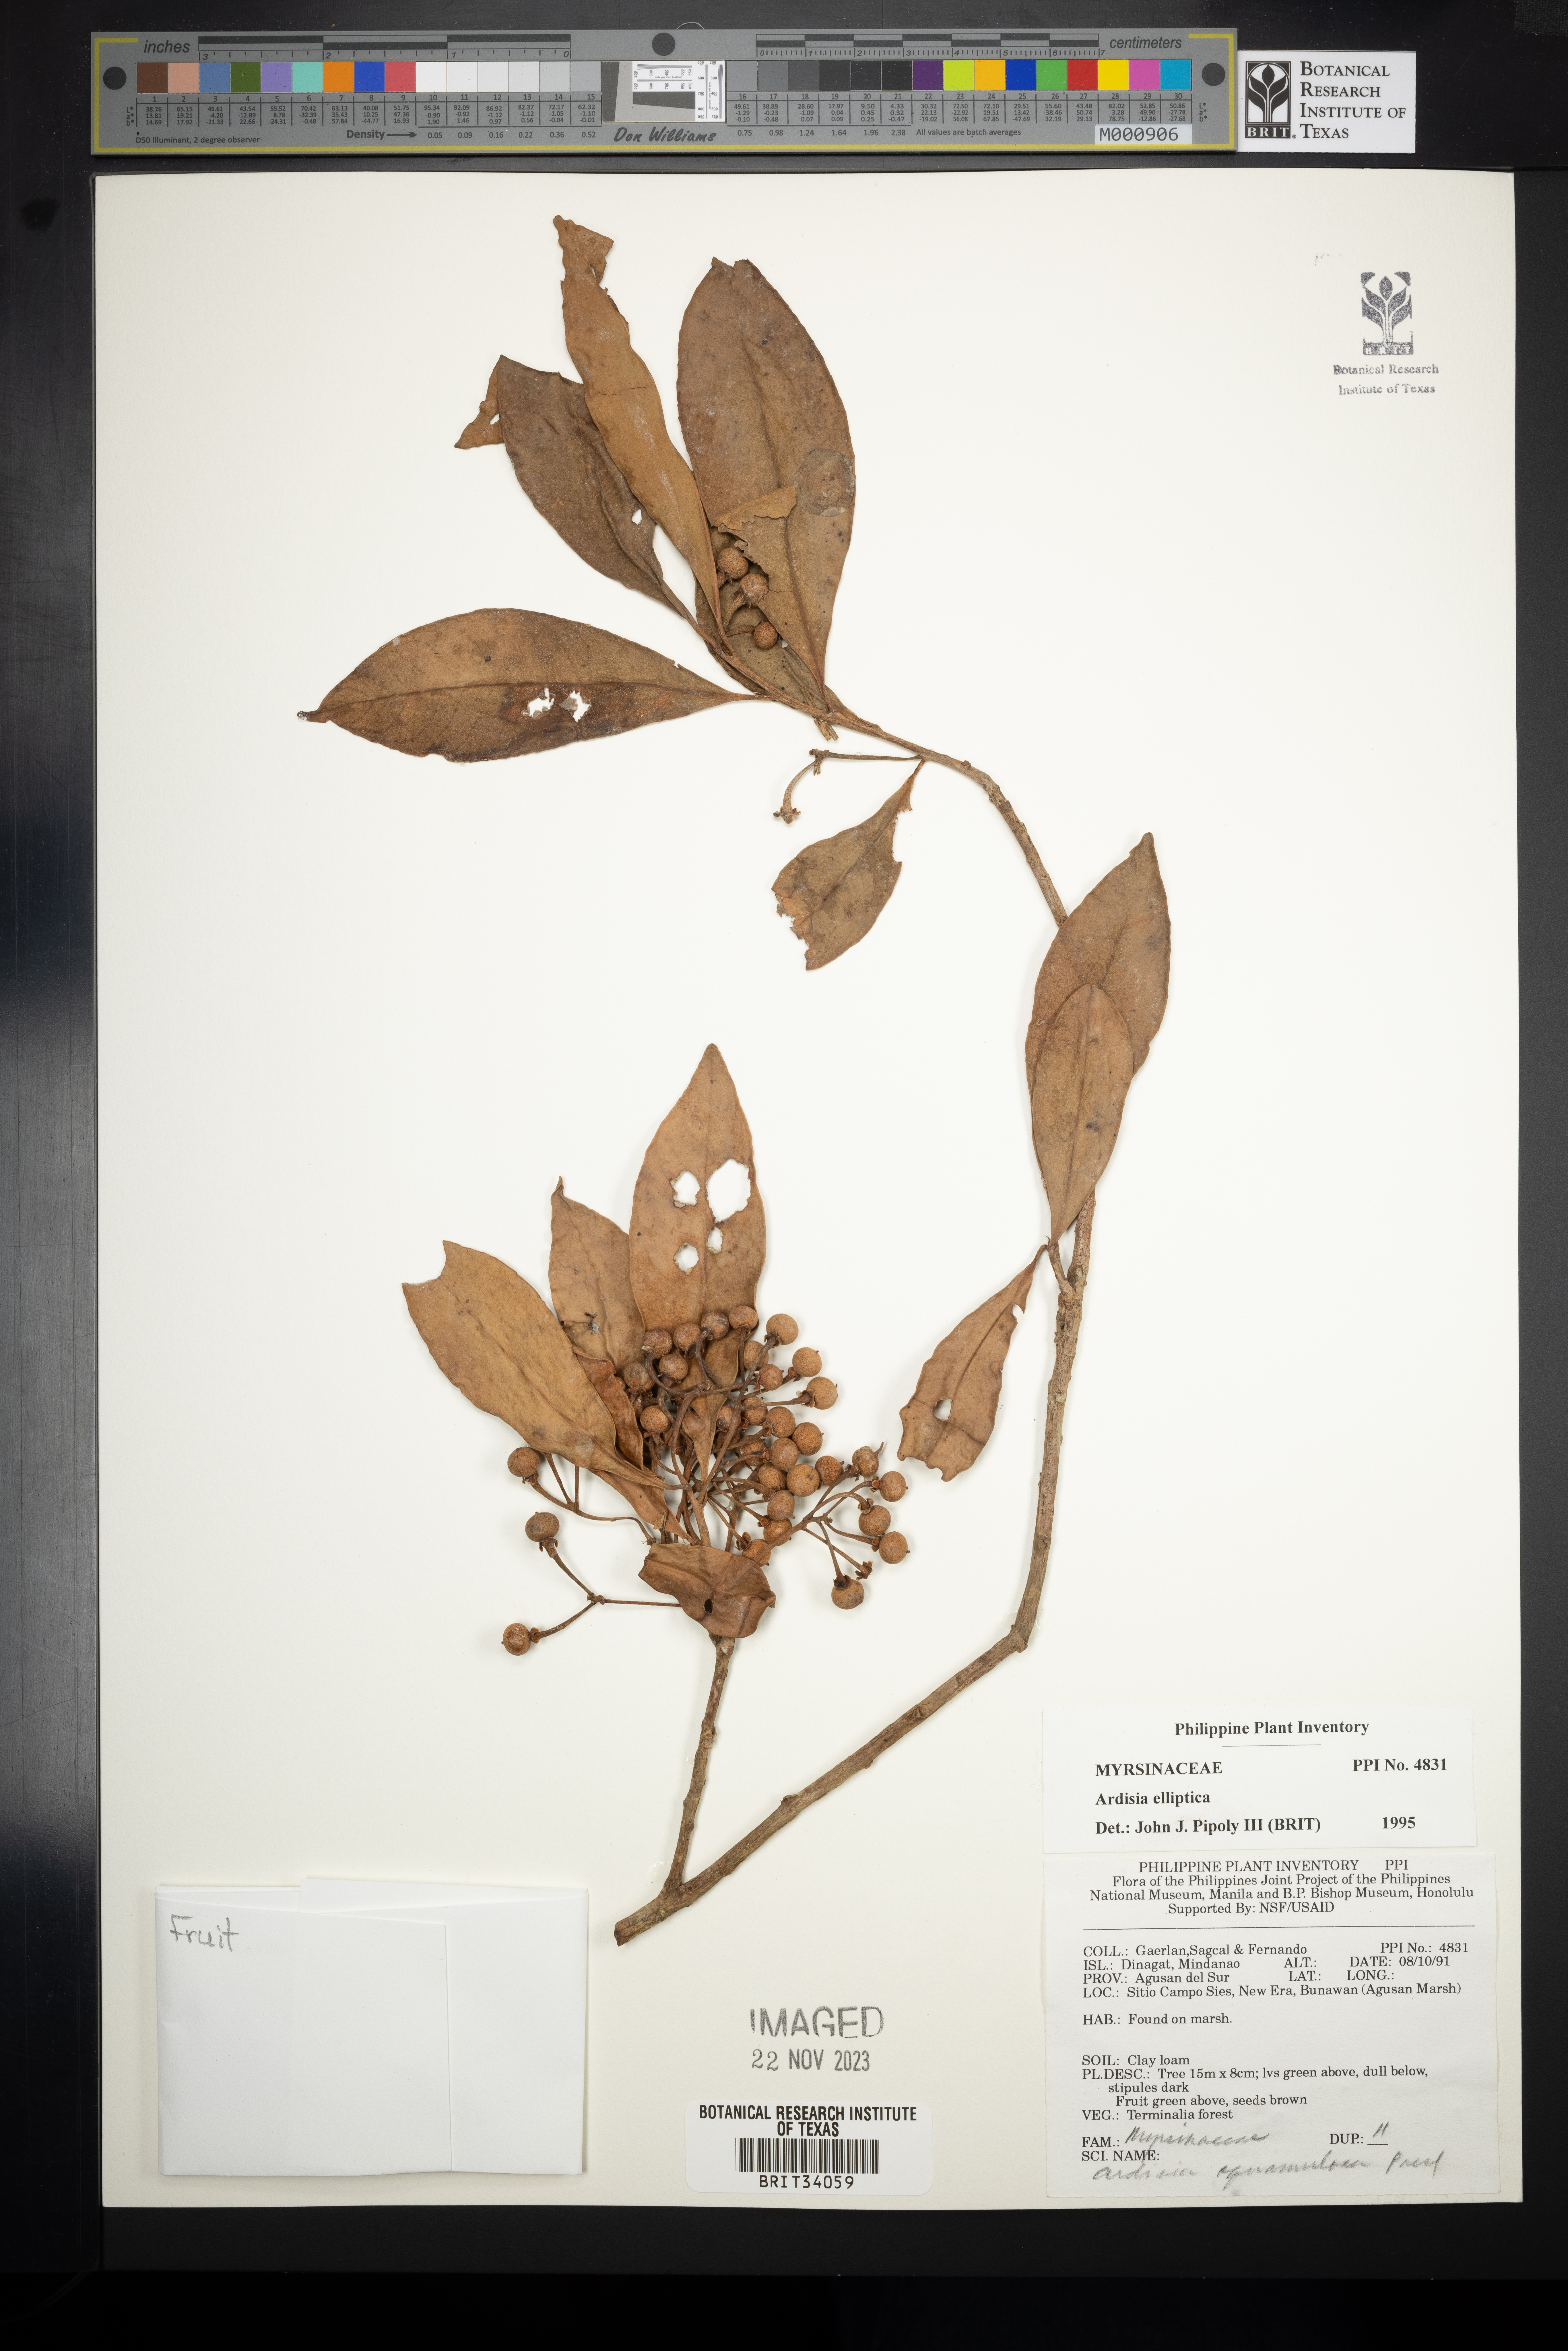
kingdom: Plantae
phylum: Tracheophyta
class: Magnoliopsida
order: Ericales
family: Primulaceae
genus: Ardisia
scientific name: Ardisia elliptica
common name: Shoebutton
